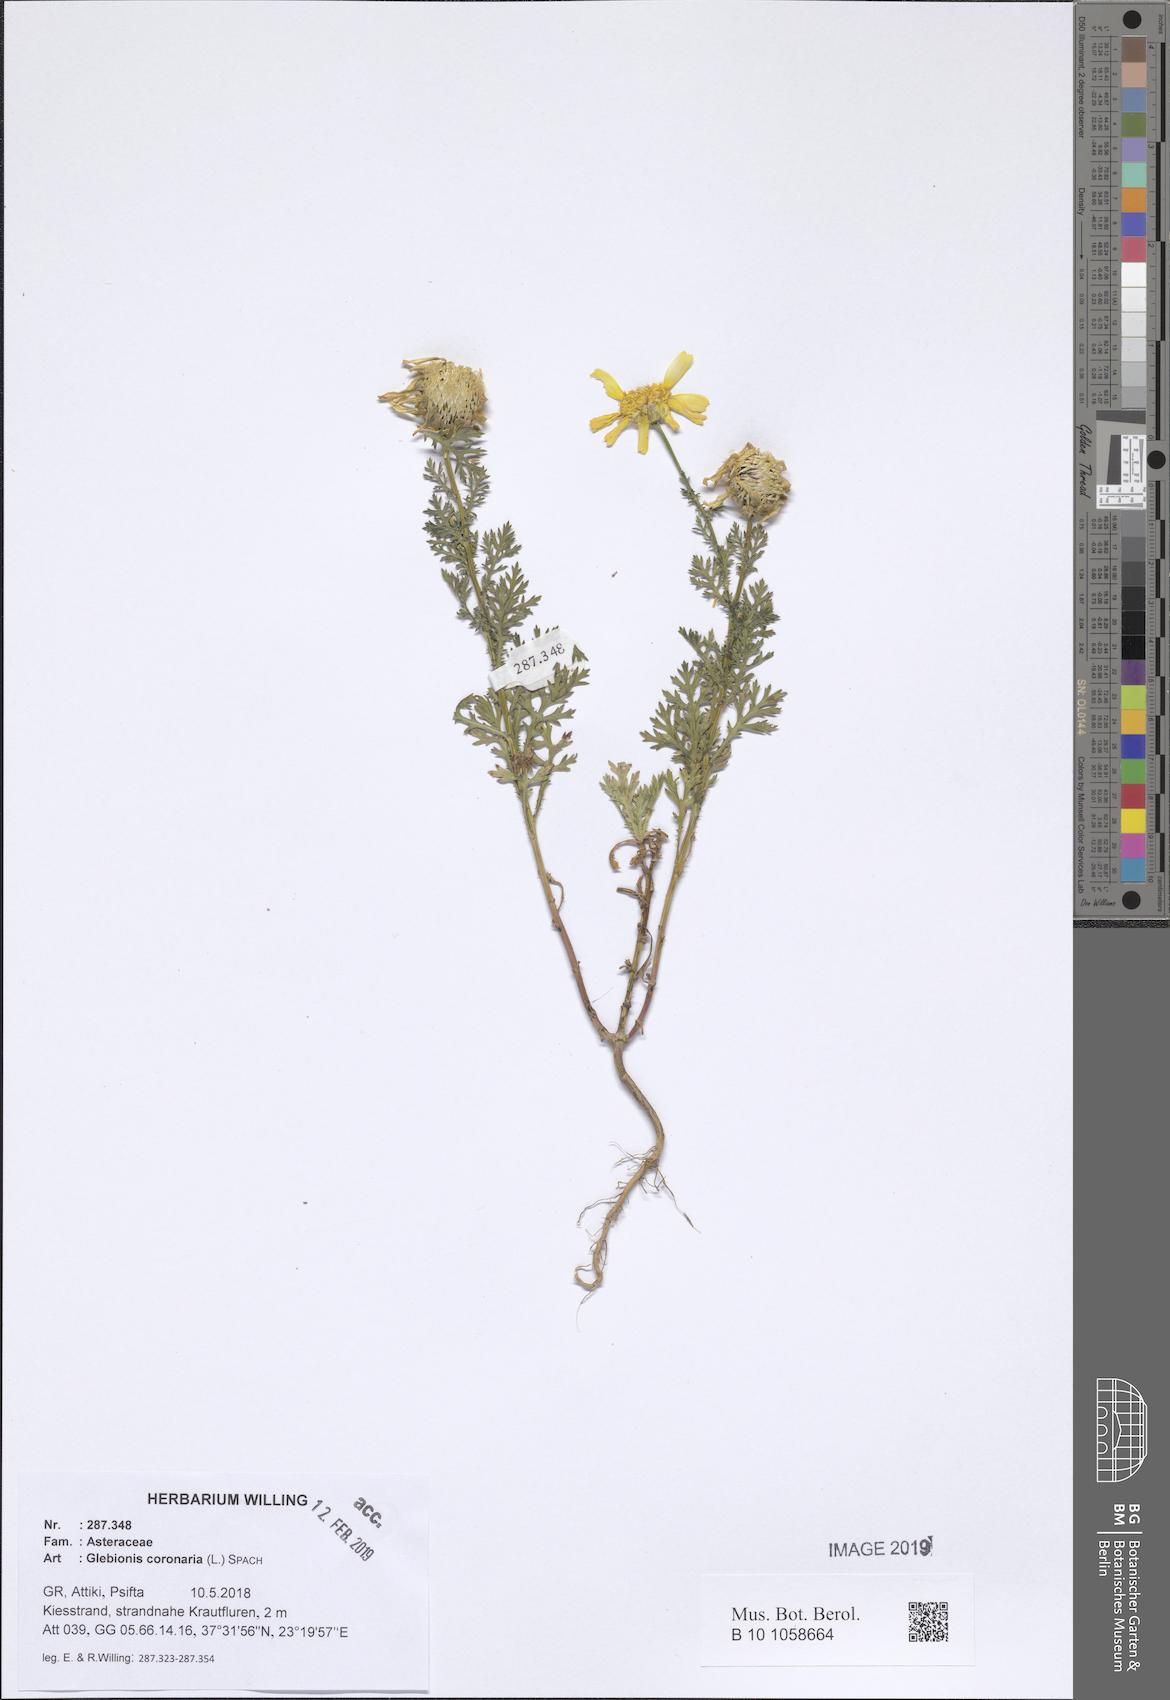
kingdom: Plantae
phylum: Tracheophyta
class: Magnoliopsida
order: Asterales
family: Asteraceae
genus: Glebionis
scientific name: Glebionis coronaria
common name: Crowndaisy
